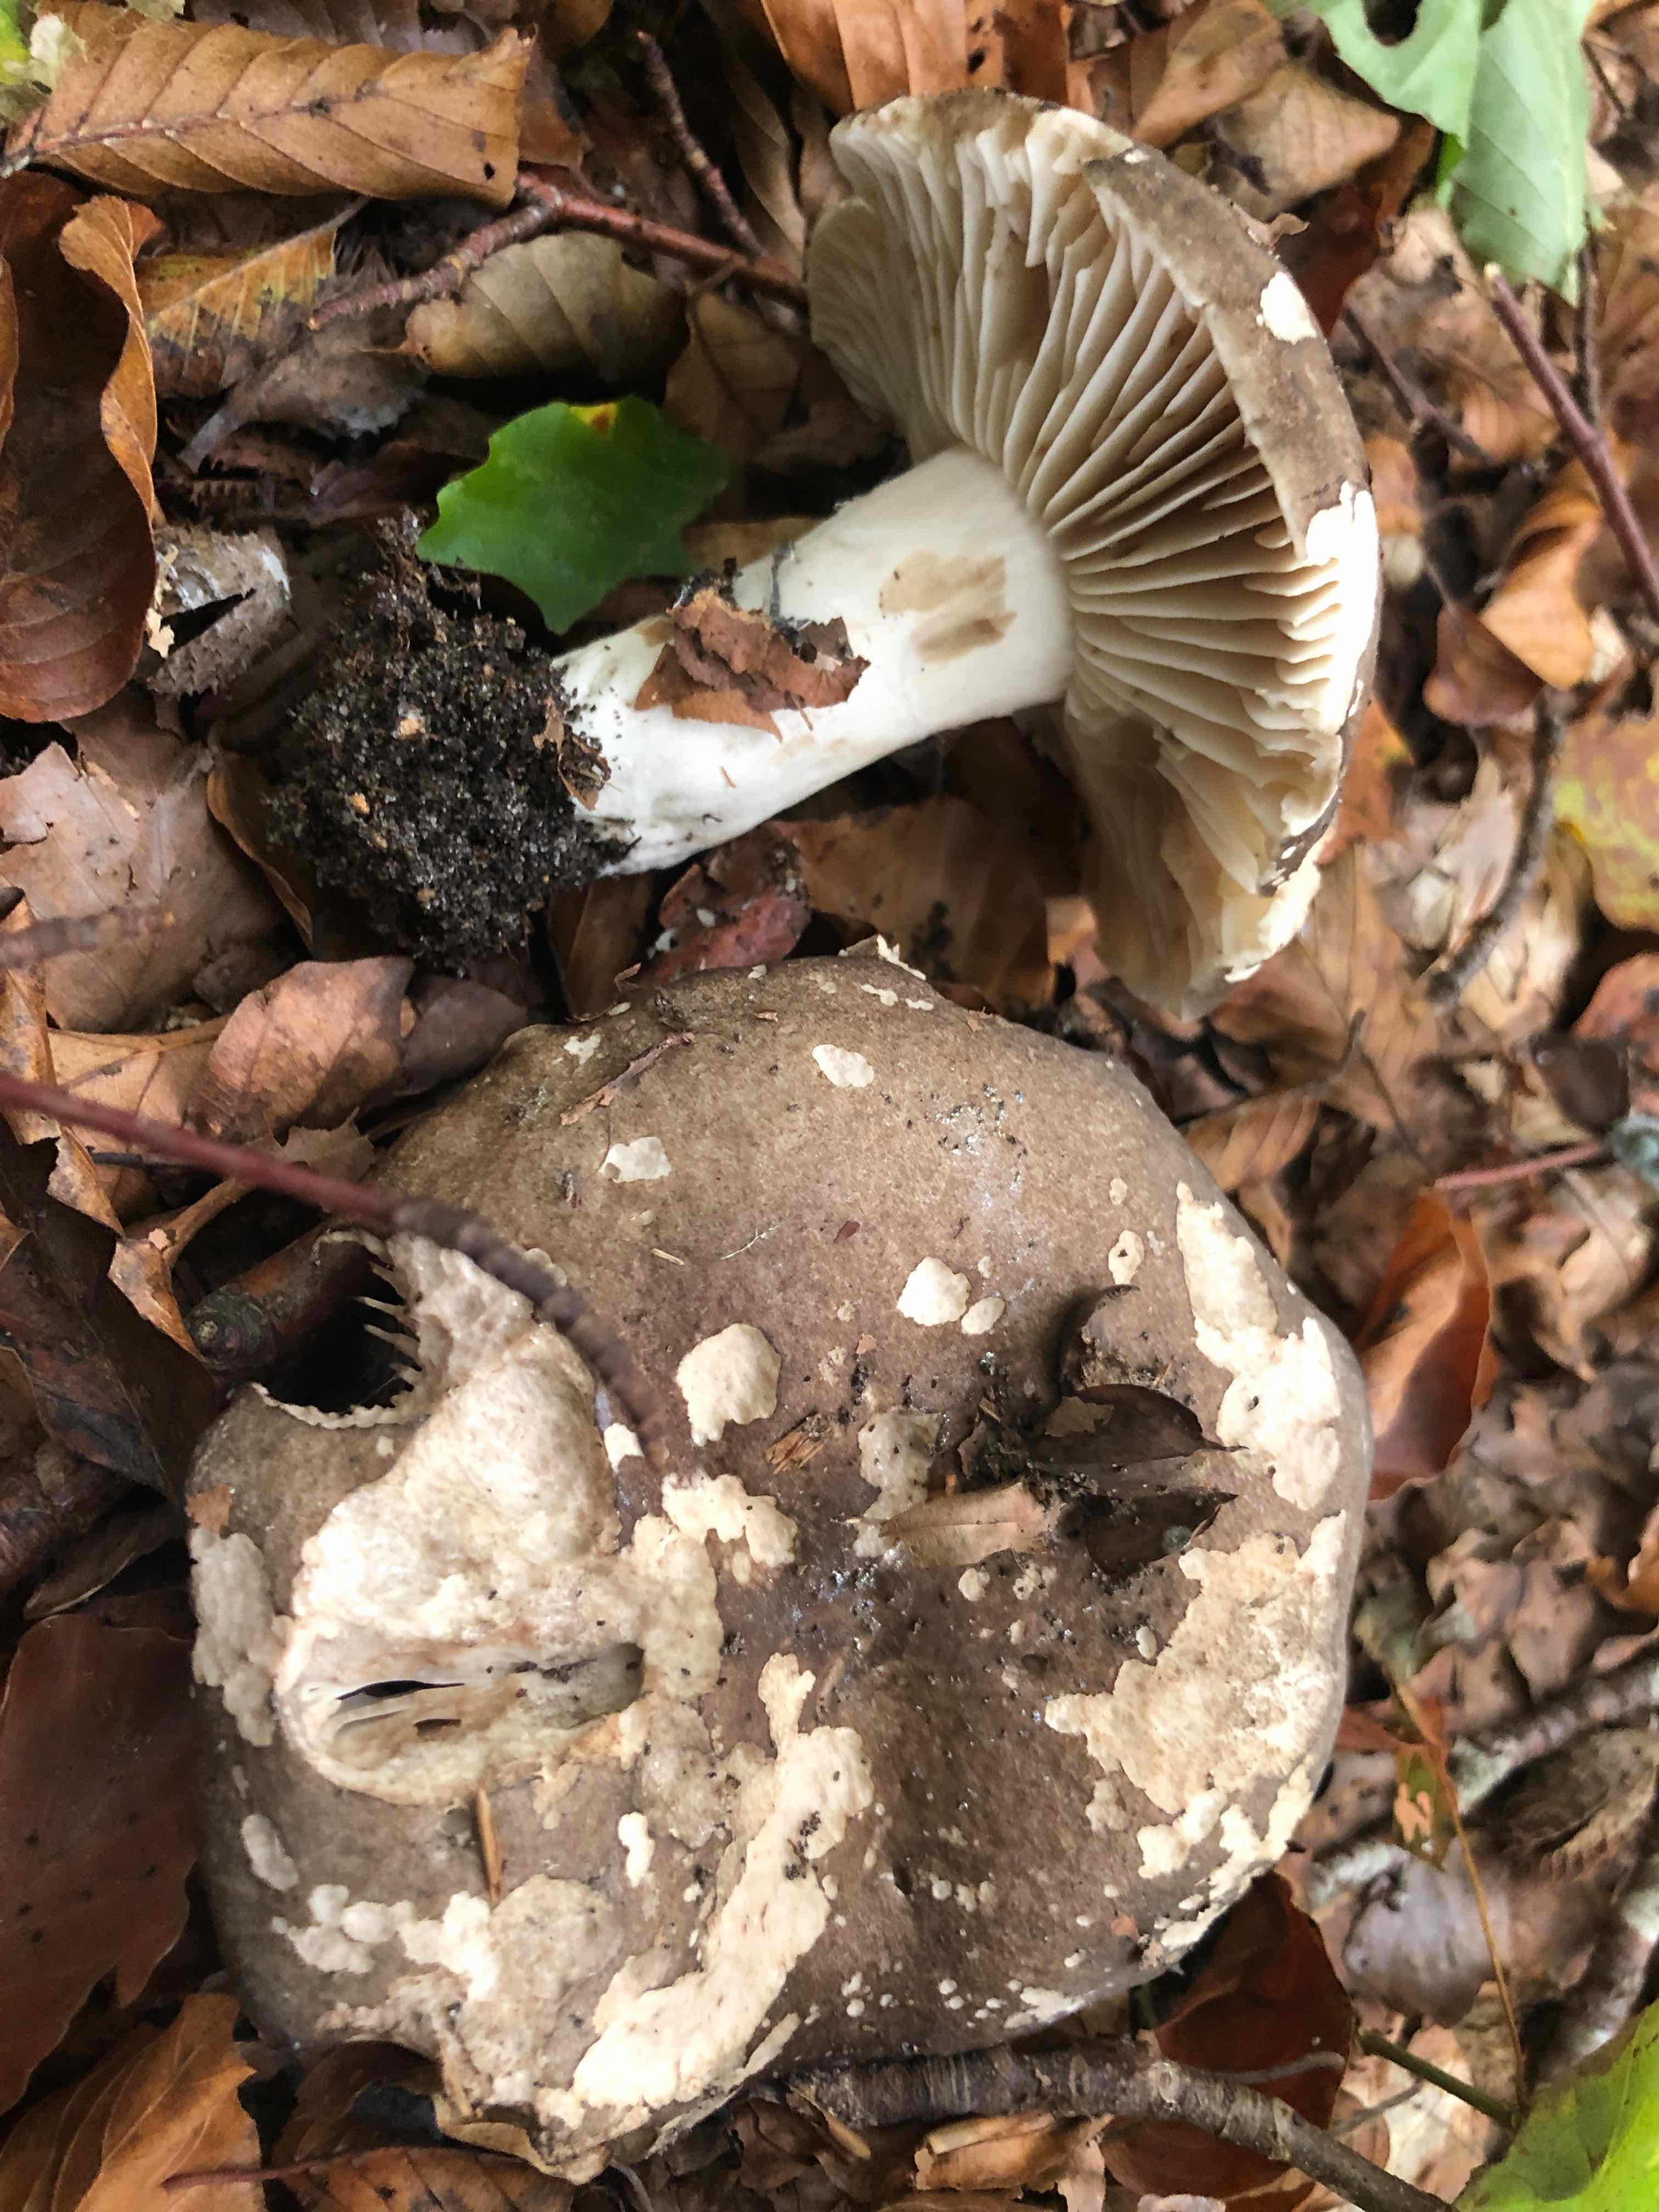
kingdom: Fungi
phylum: Basidiomycota
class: Agaricomycetes
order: Russulales
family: Russulaceae
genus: Russula
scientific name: Russula adusta
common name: sværtende skørhat
